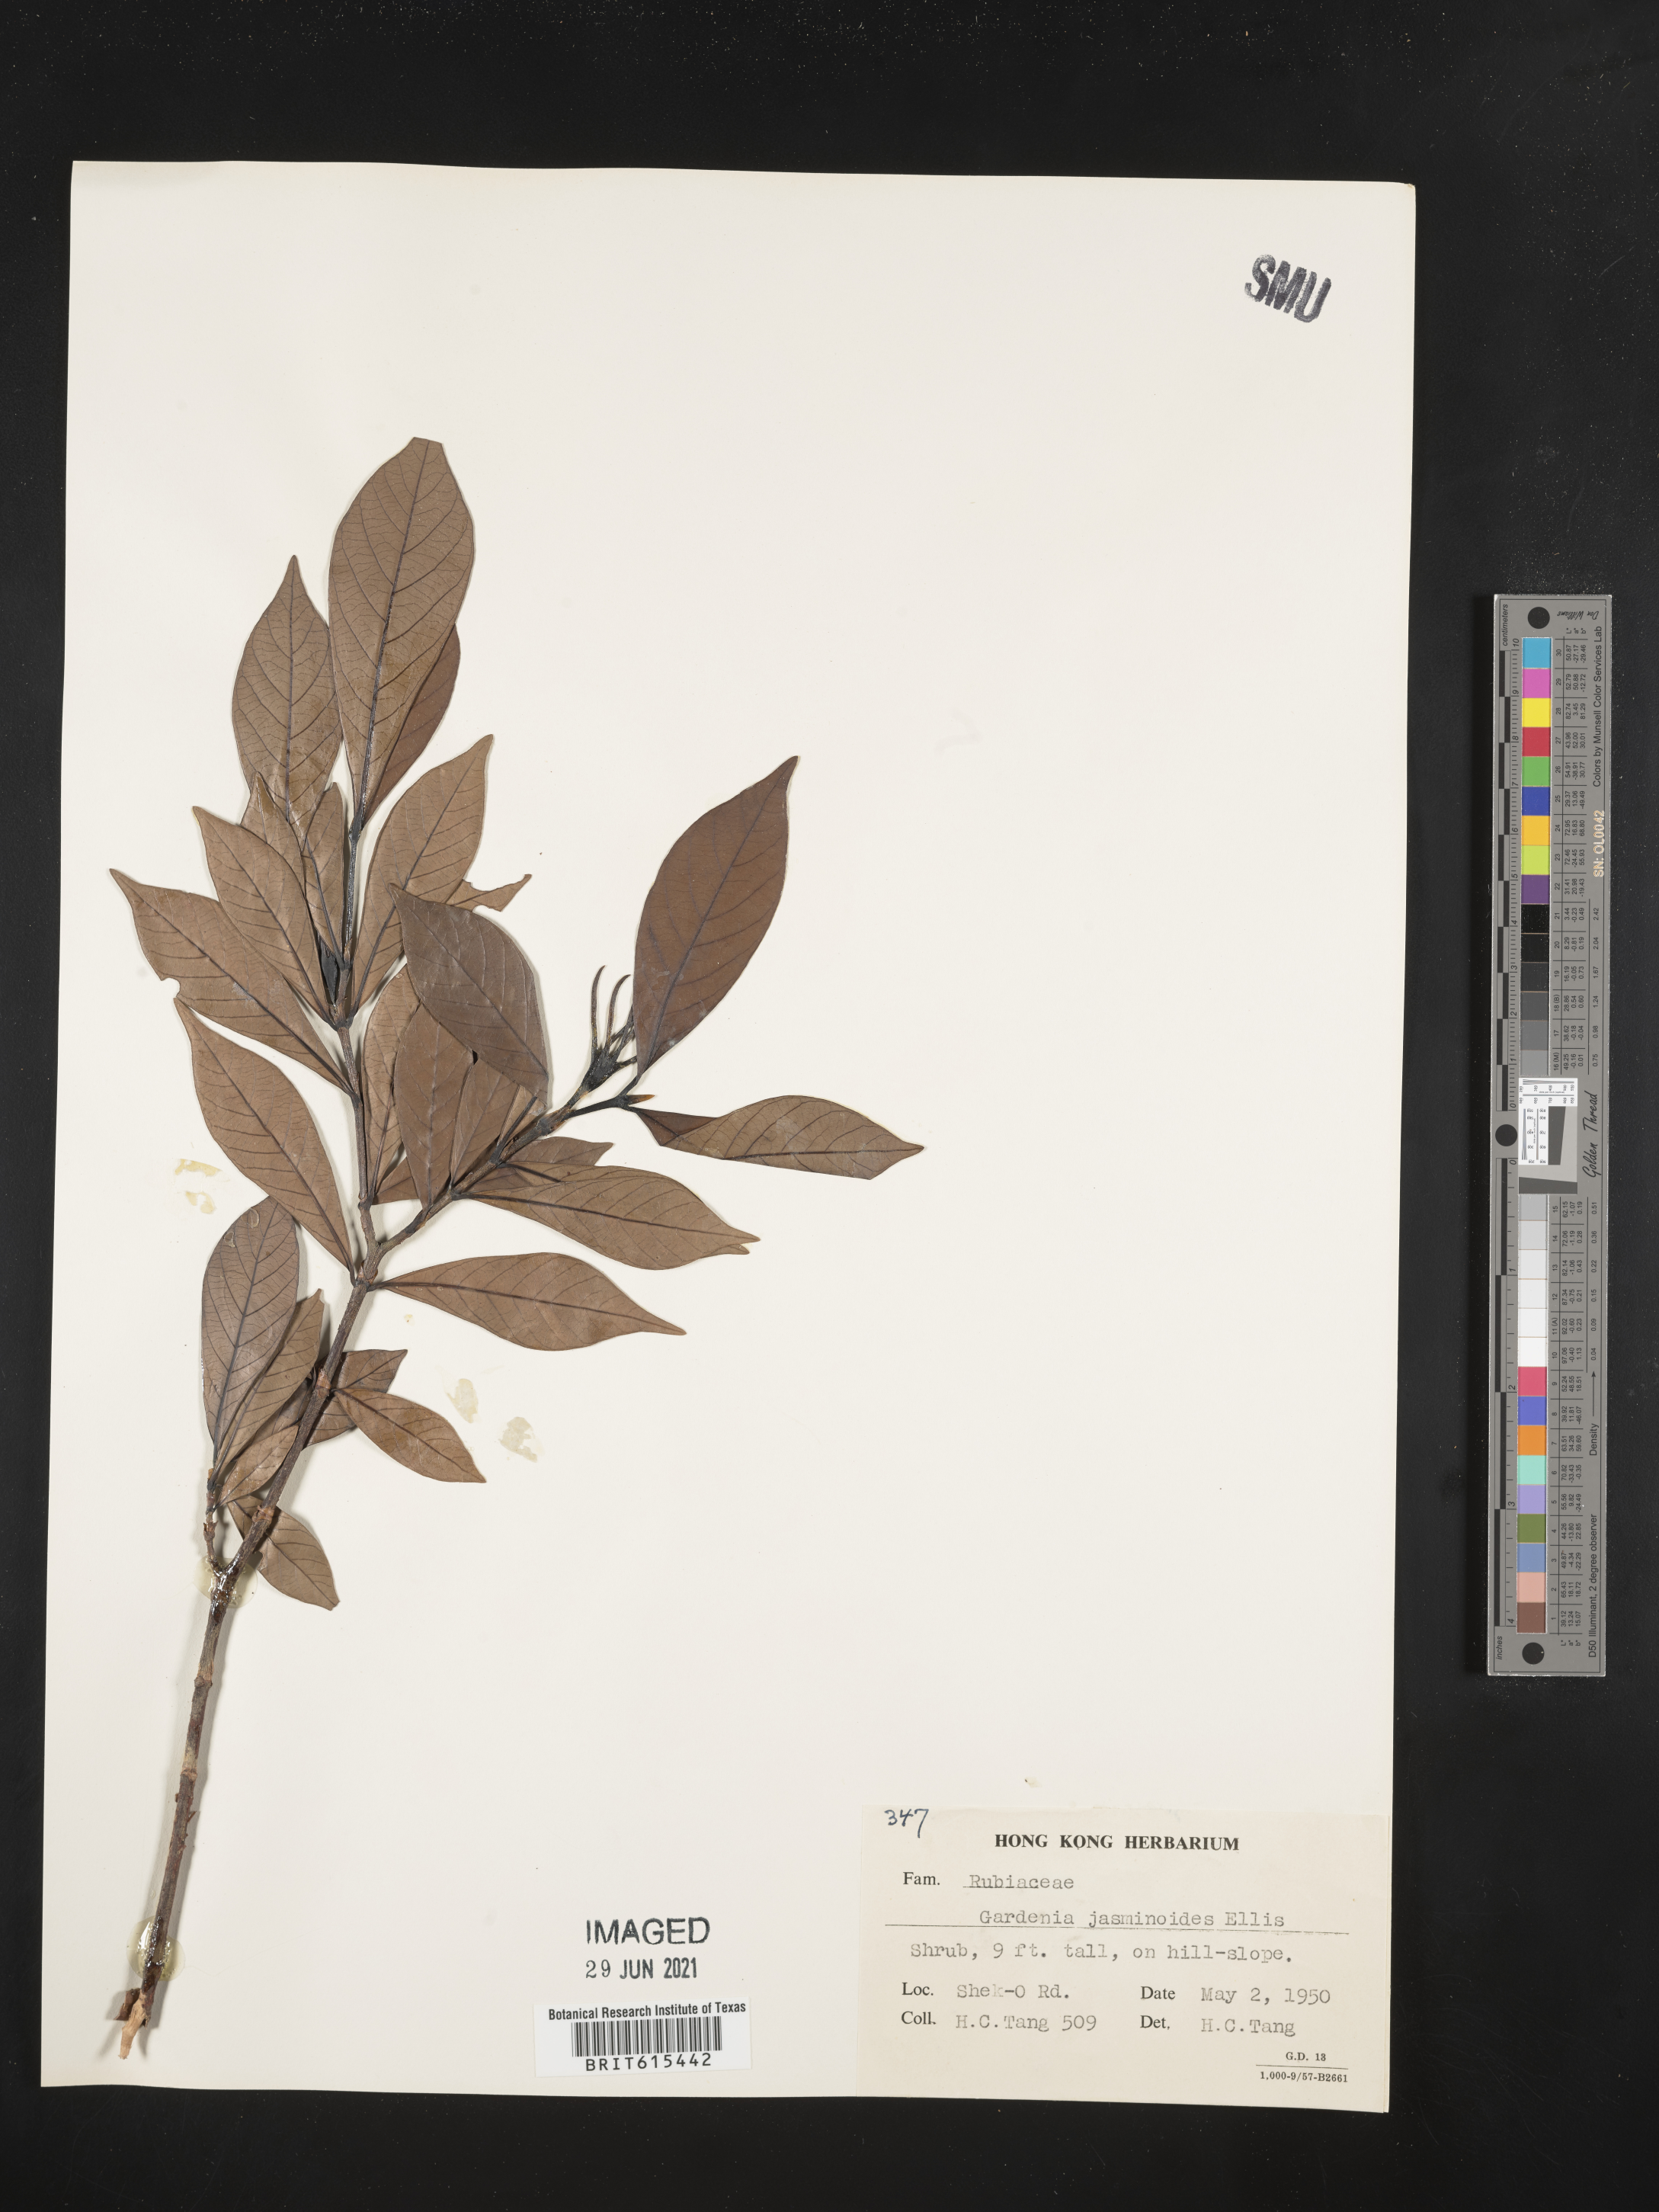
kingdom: Plantae
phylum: Tracheophyta
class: Magnoliopsida
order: Gentianales
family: Rubiaceae
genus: Gardenia
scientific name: Gardenia jasminoides
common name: Cape-jasmine
